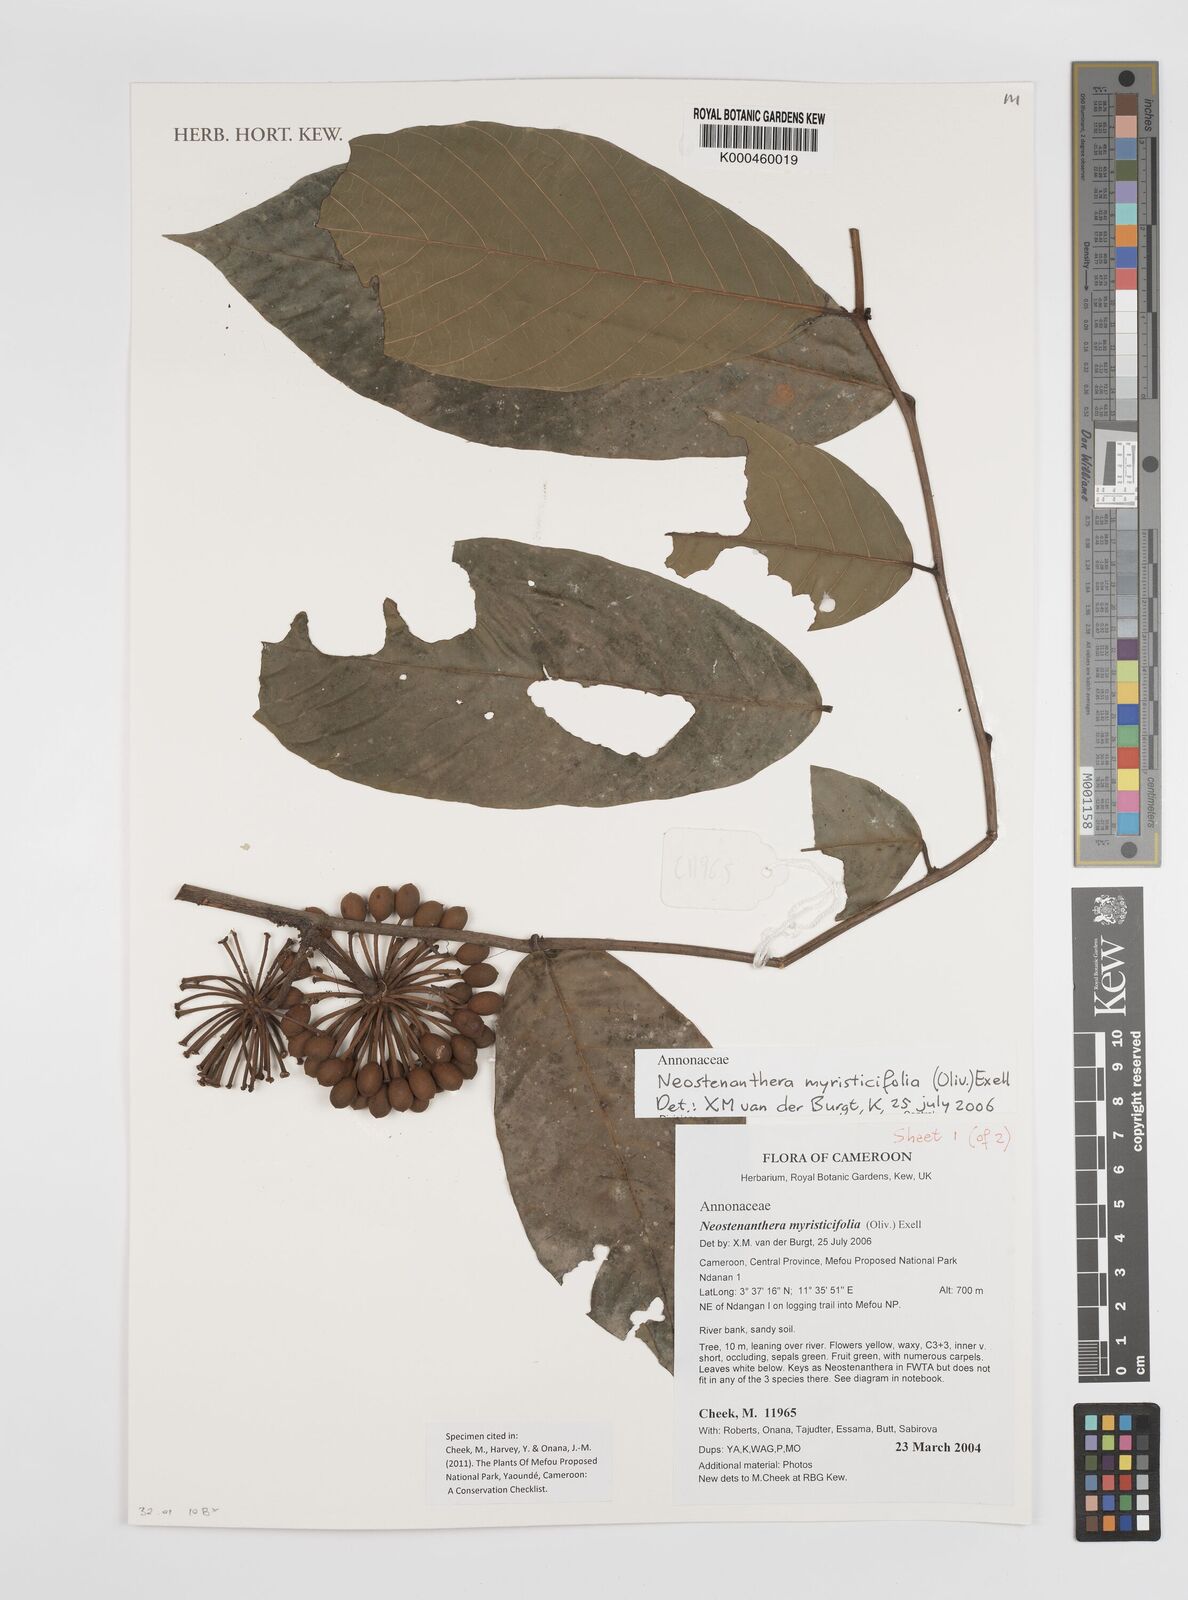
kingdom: Plantae
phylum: Tracheophyta
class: Magnoliopsida
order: Magnoliales
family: Annonaceae
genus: Neostenanthera
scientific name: Neostenanthera myristicifolia
